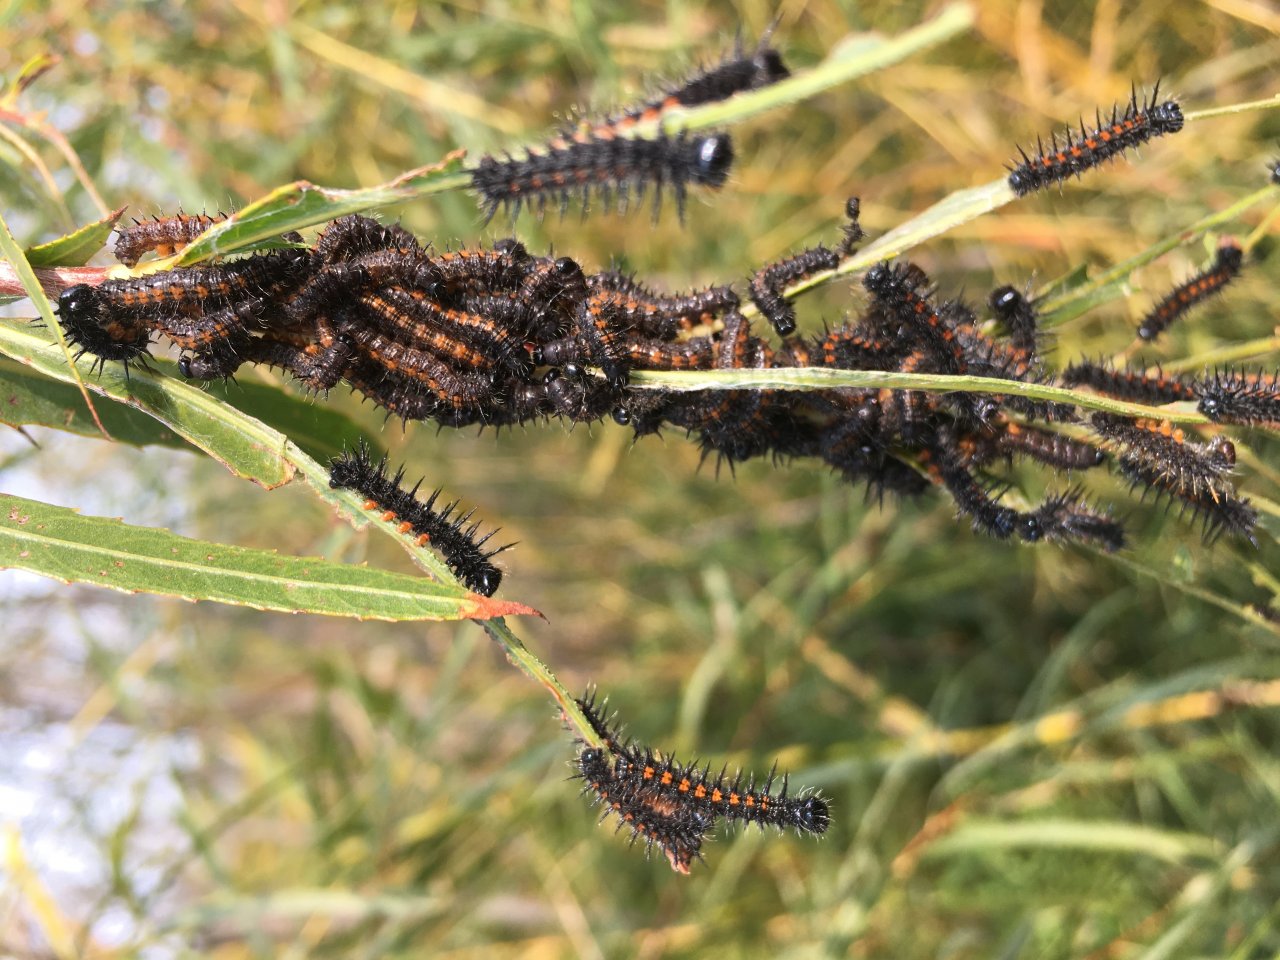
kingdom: Animalia
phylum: Arthropoda
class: Insecta
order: Lepidoptera
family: Nymphalidae
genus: Nymphalis
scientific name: Nymphalis antiopa
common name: Mourning Cloak
